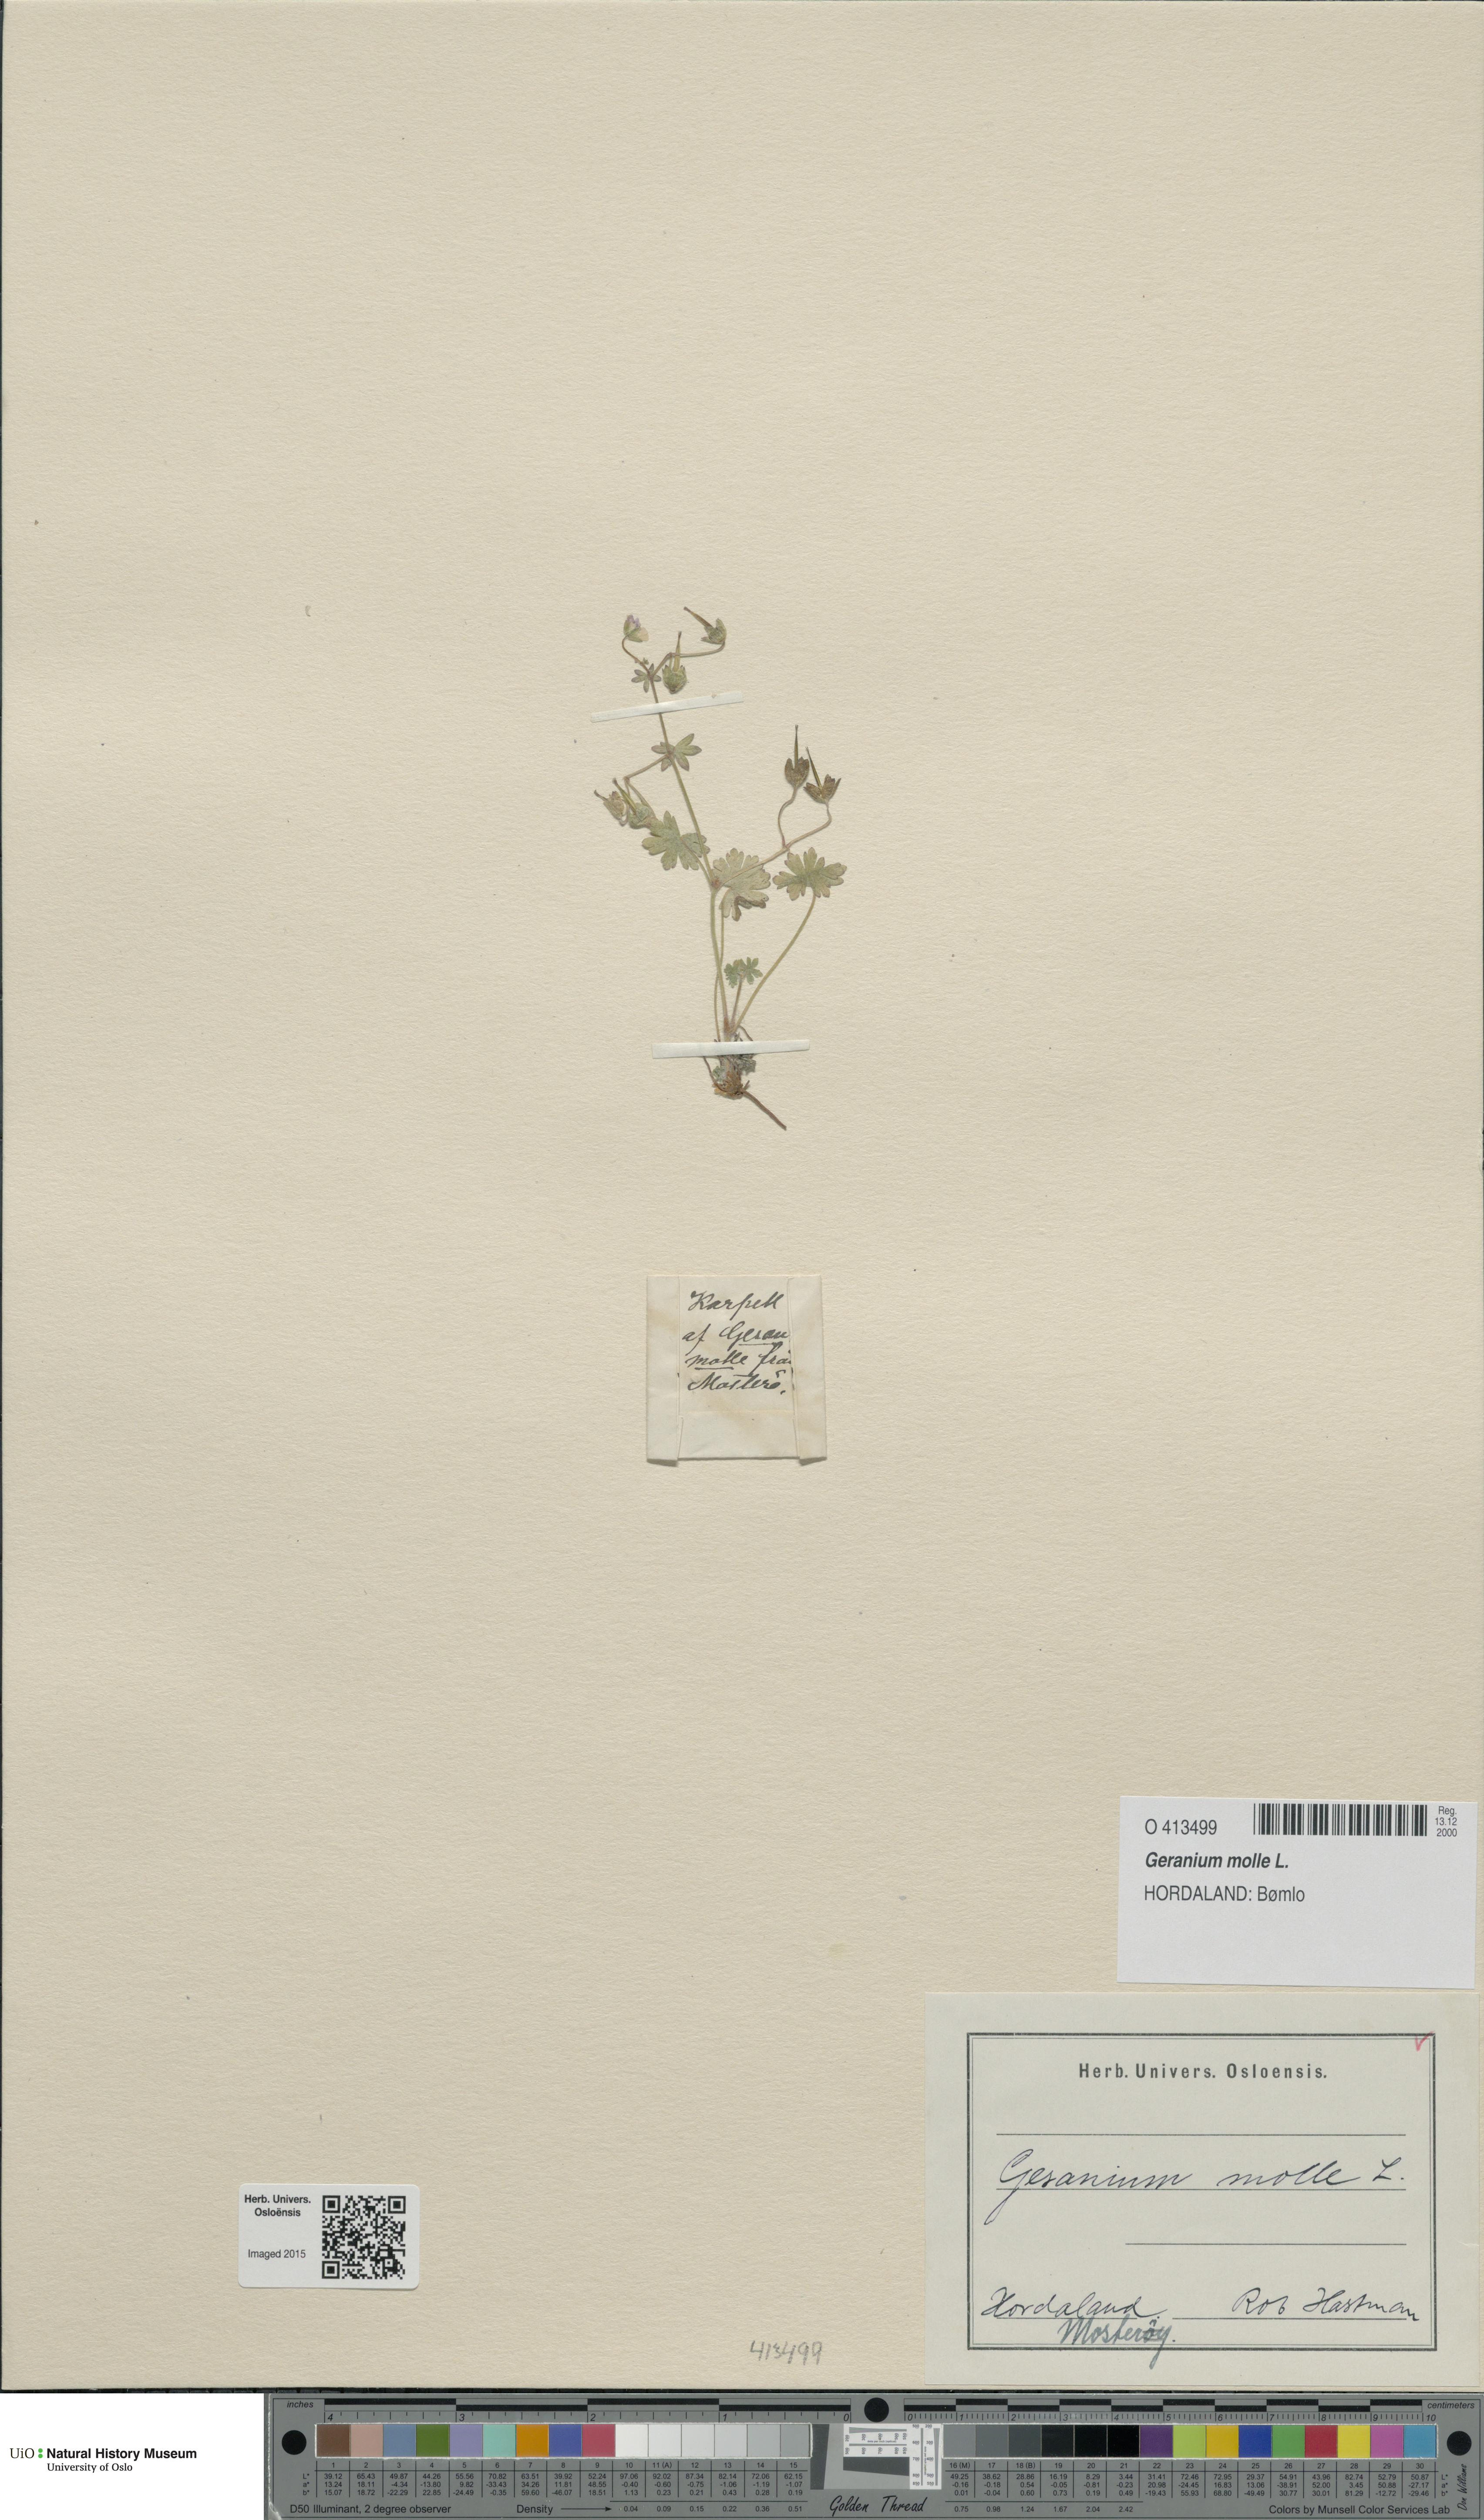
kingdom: Plantae
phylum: Tracheophyta
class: Magnoliopsida
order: Geraniales
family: Geraniaceae
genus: Geranium
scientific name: Geranium molle
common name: Dove's-foot crane's-bill
